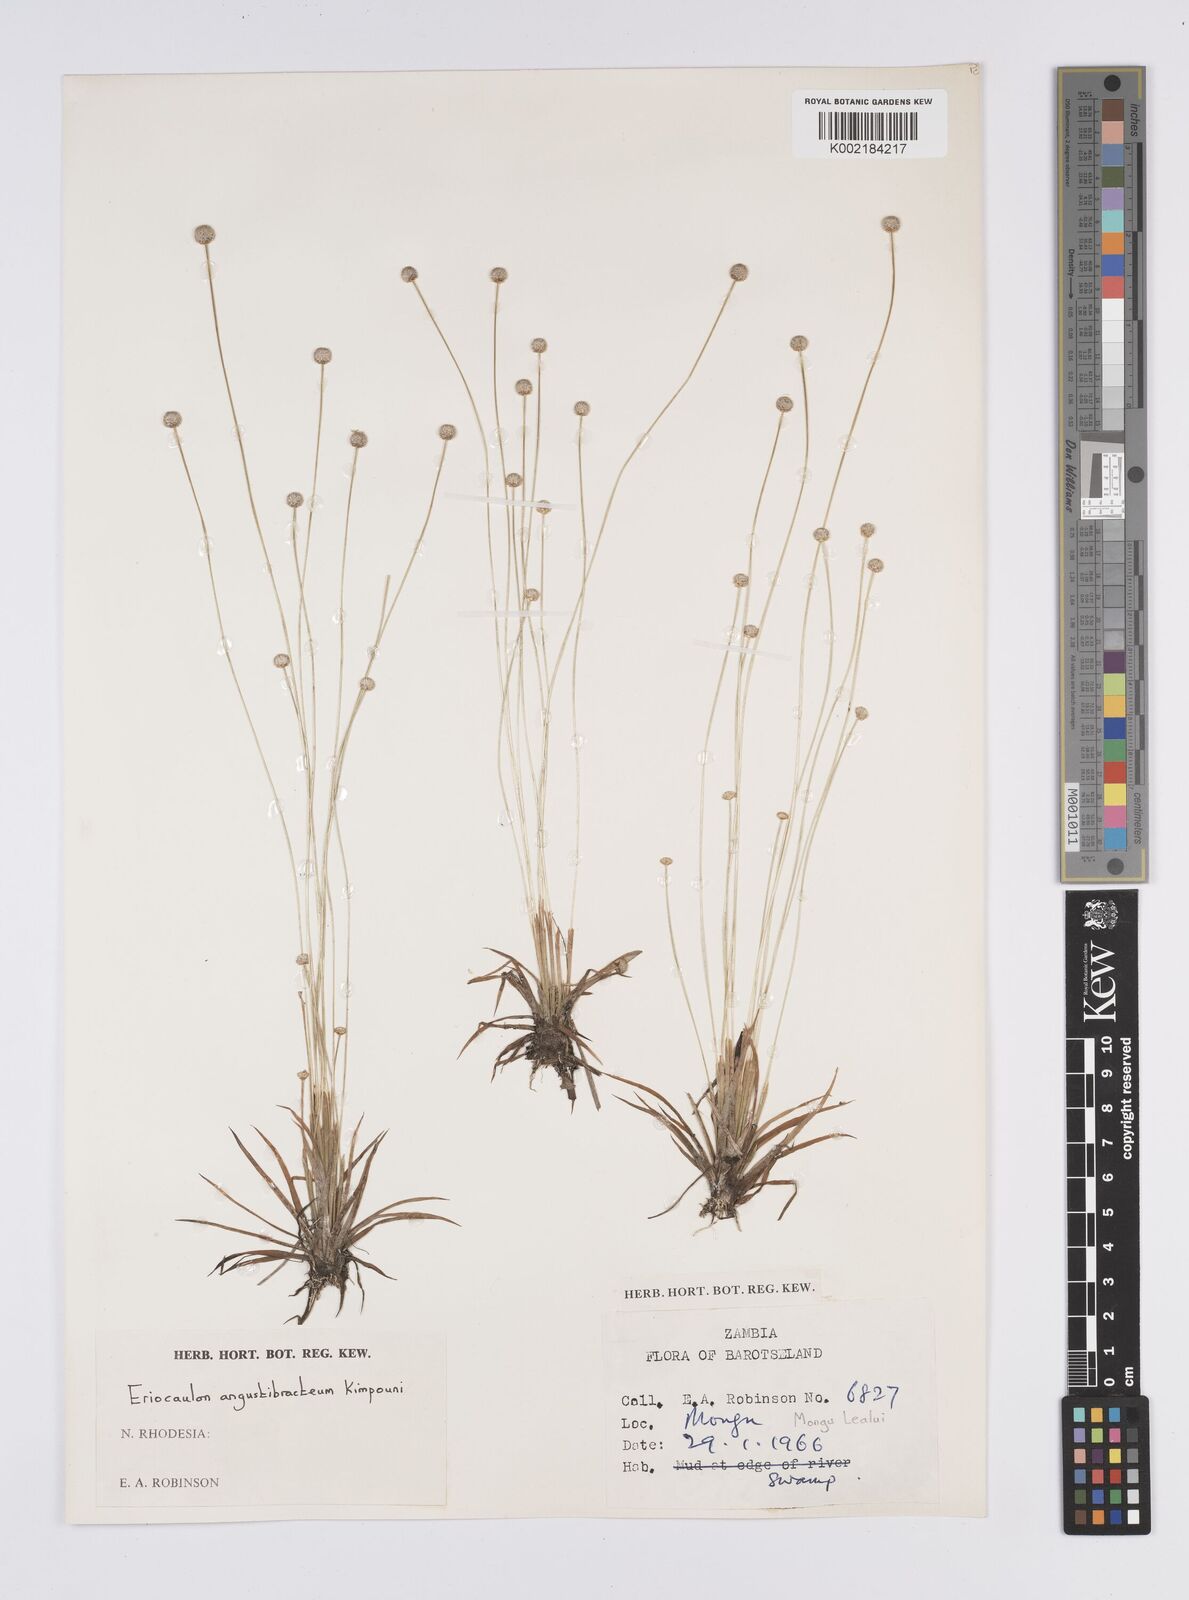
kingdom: Plantae
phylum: Tracheophyta
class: Liliopsida
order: Poales
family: Eriocaulaceae
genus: Eriocaulon
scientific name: Eriocaulon angustibracteum
